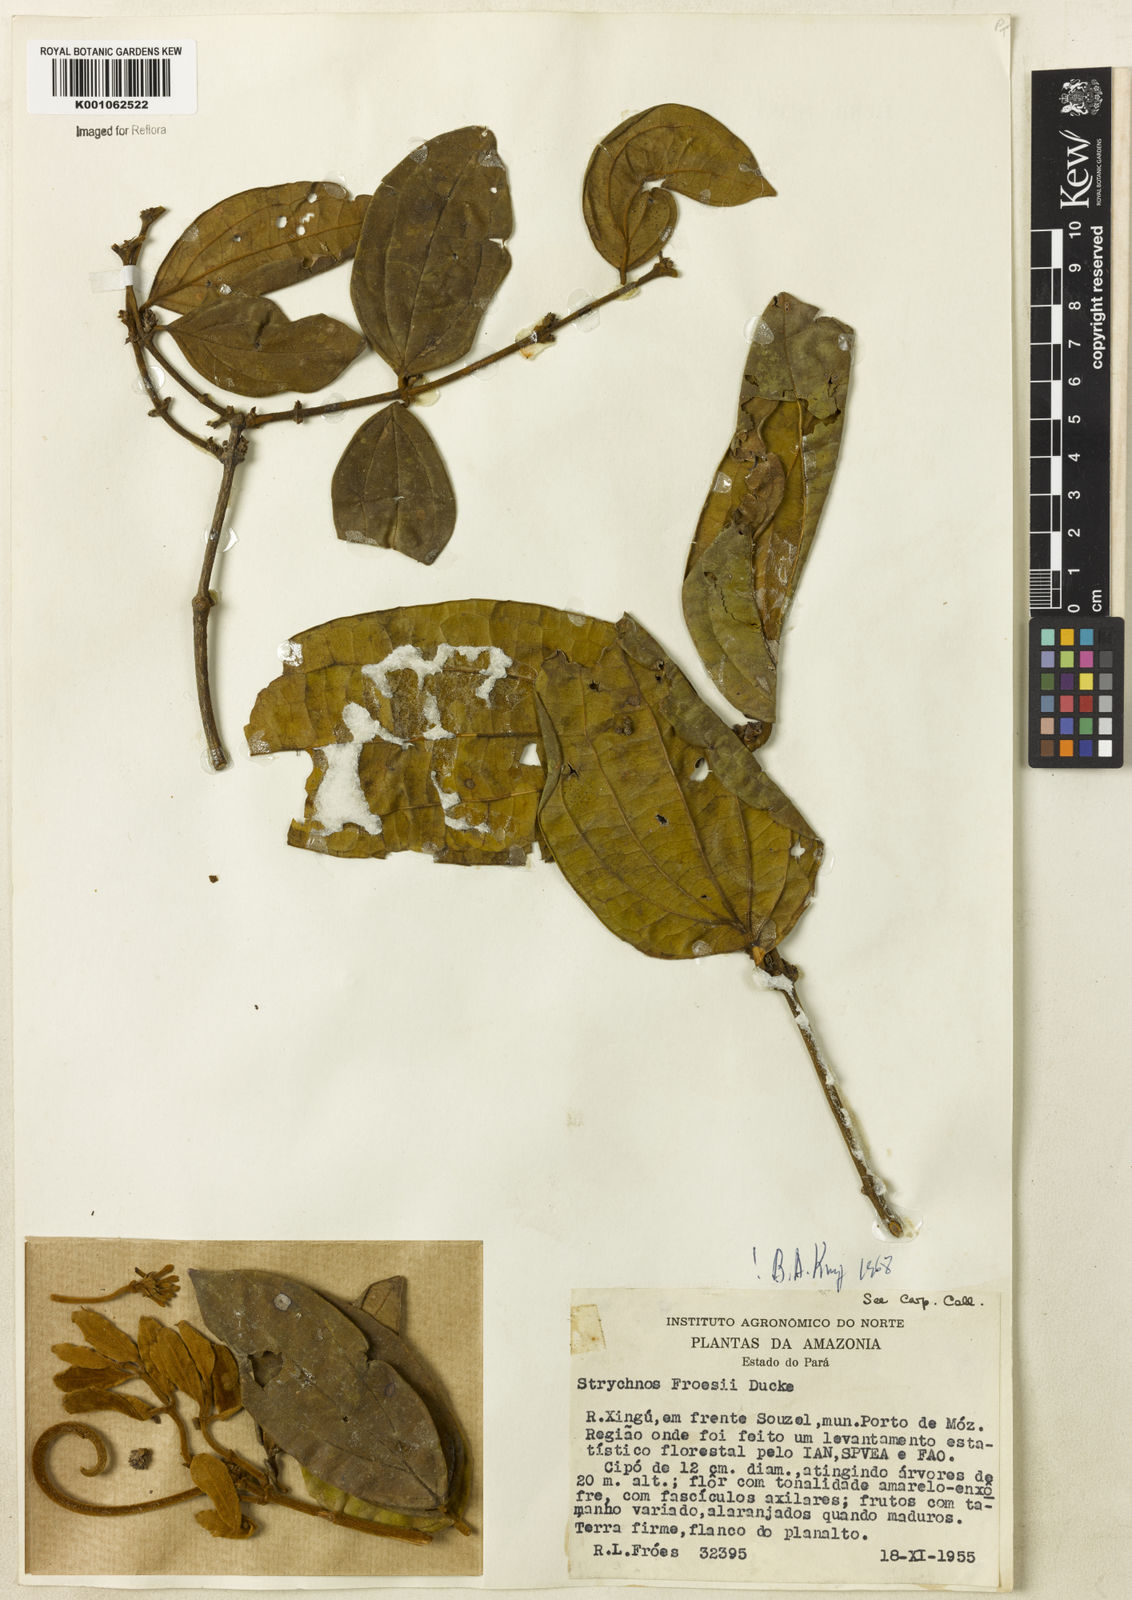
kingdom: Plantae
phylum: Tracheophyta
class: Magnoliopsida
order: Gentianales
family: Loganiaceae
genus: Strychnos
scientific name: Strychnos froesii
